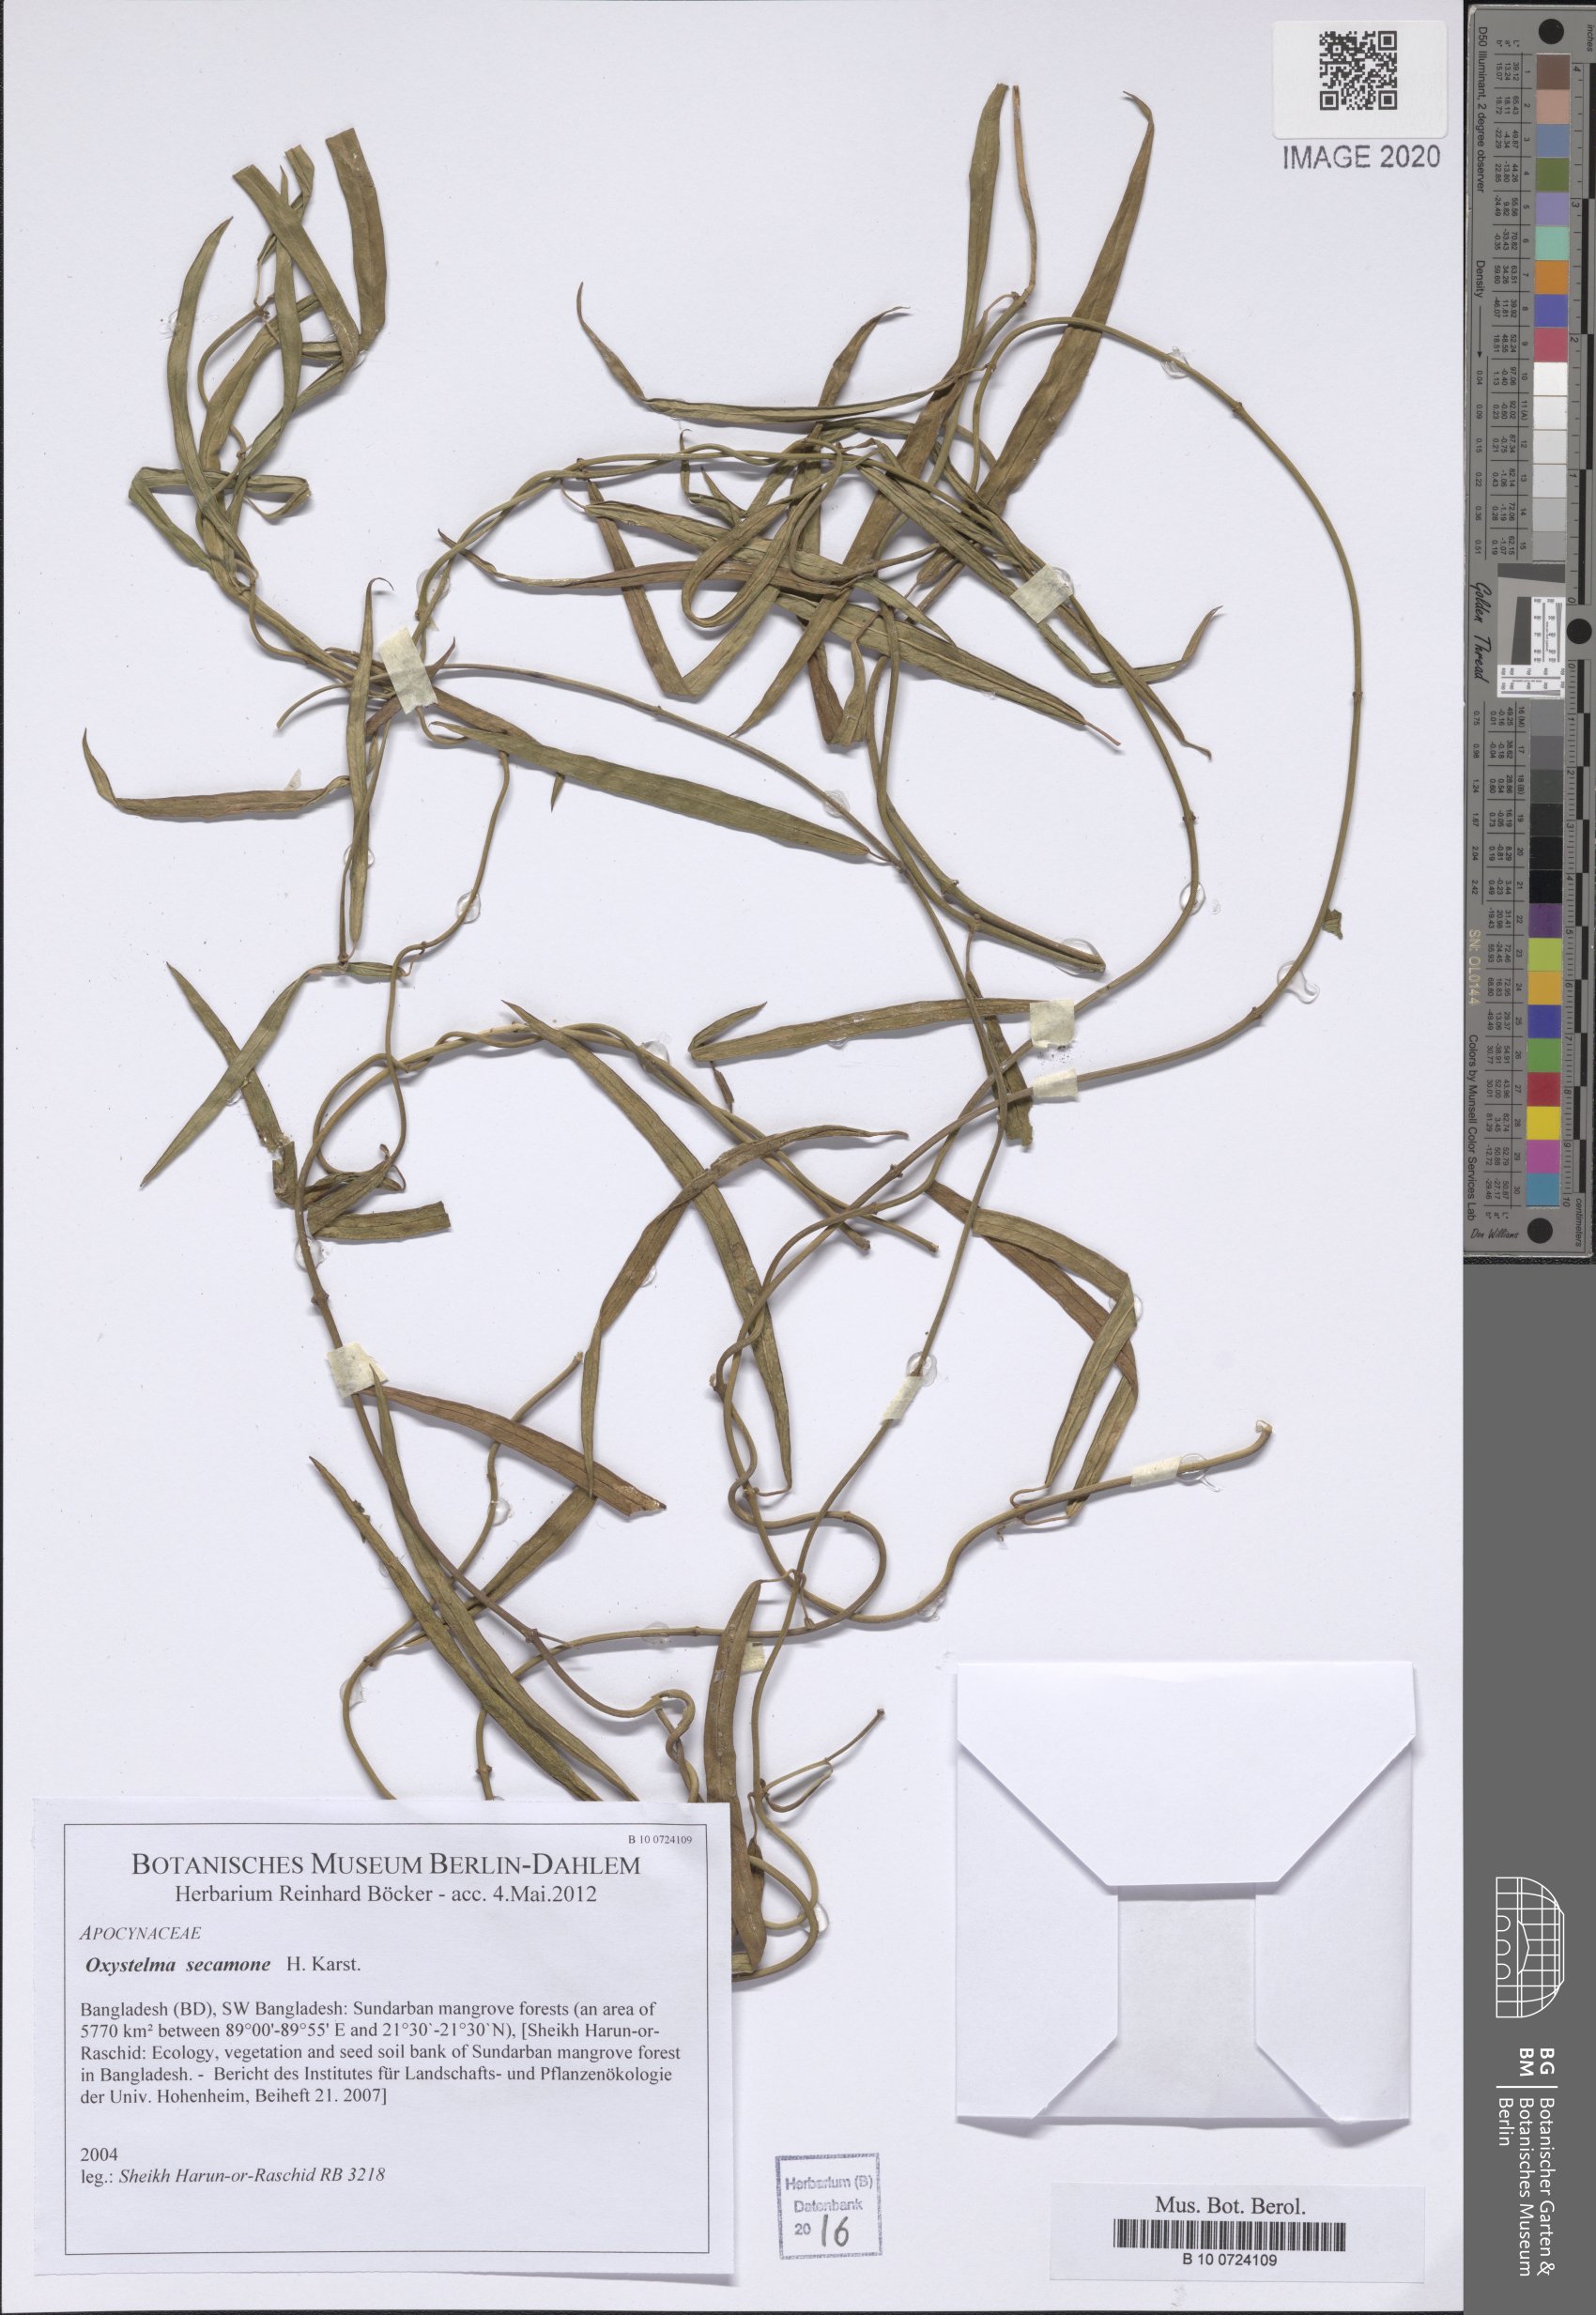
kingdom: Plantae
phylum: Tracheophyta
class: Magnoliopsida
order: Gentianales
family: Apocynaceae
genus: Oxystelma
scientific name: Oxystelma wallichii
